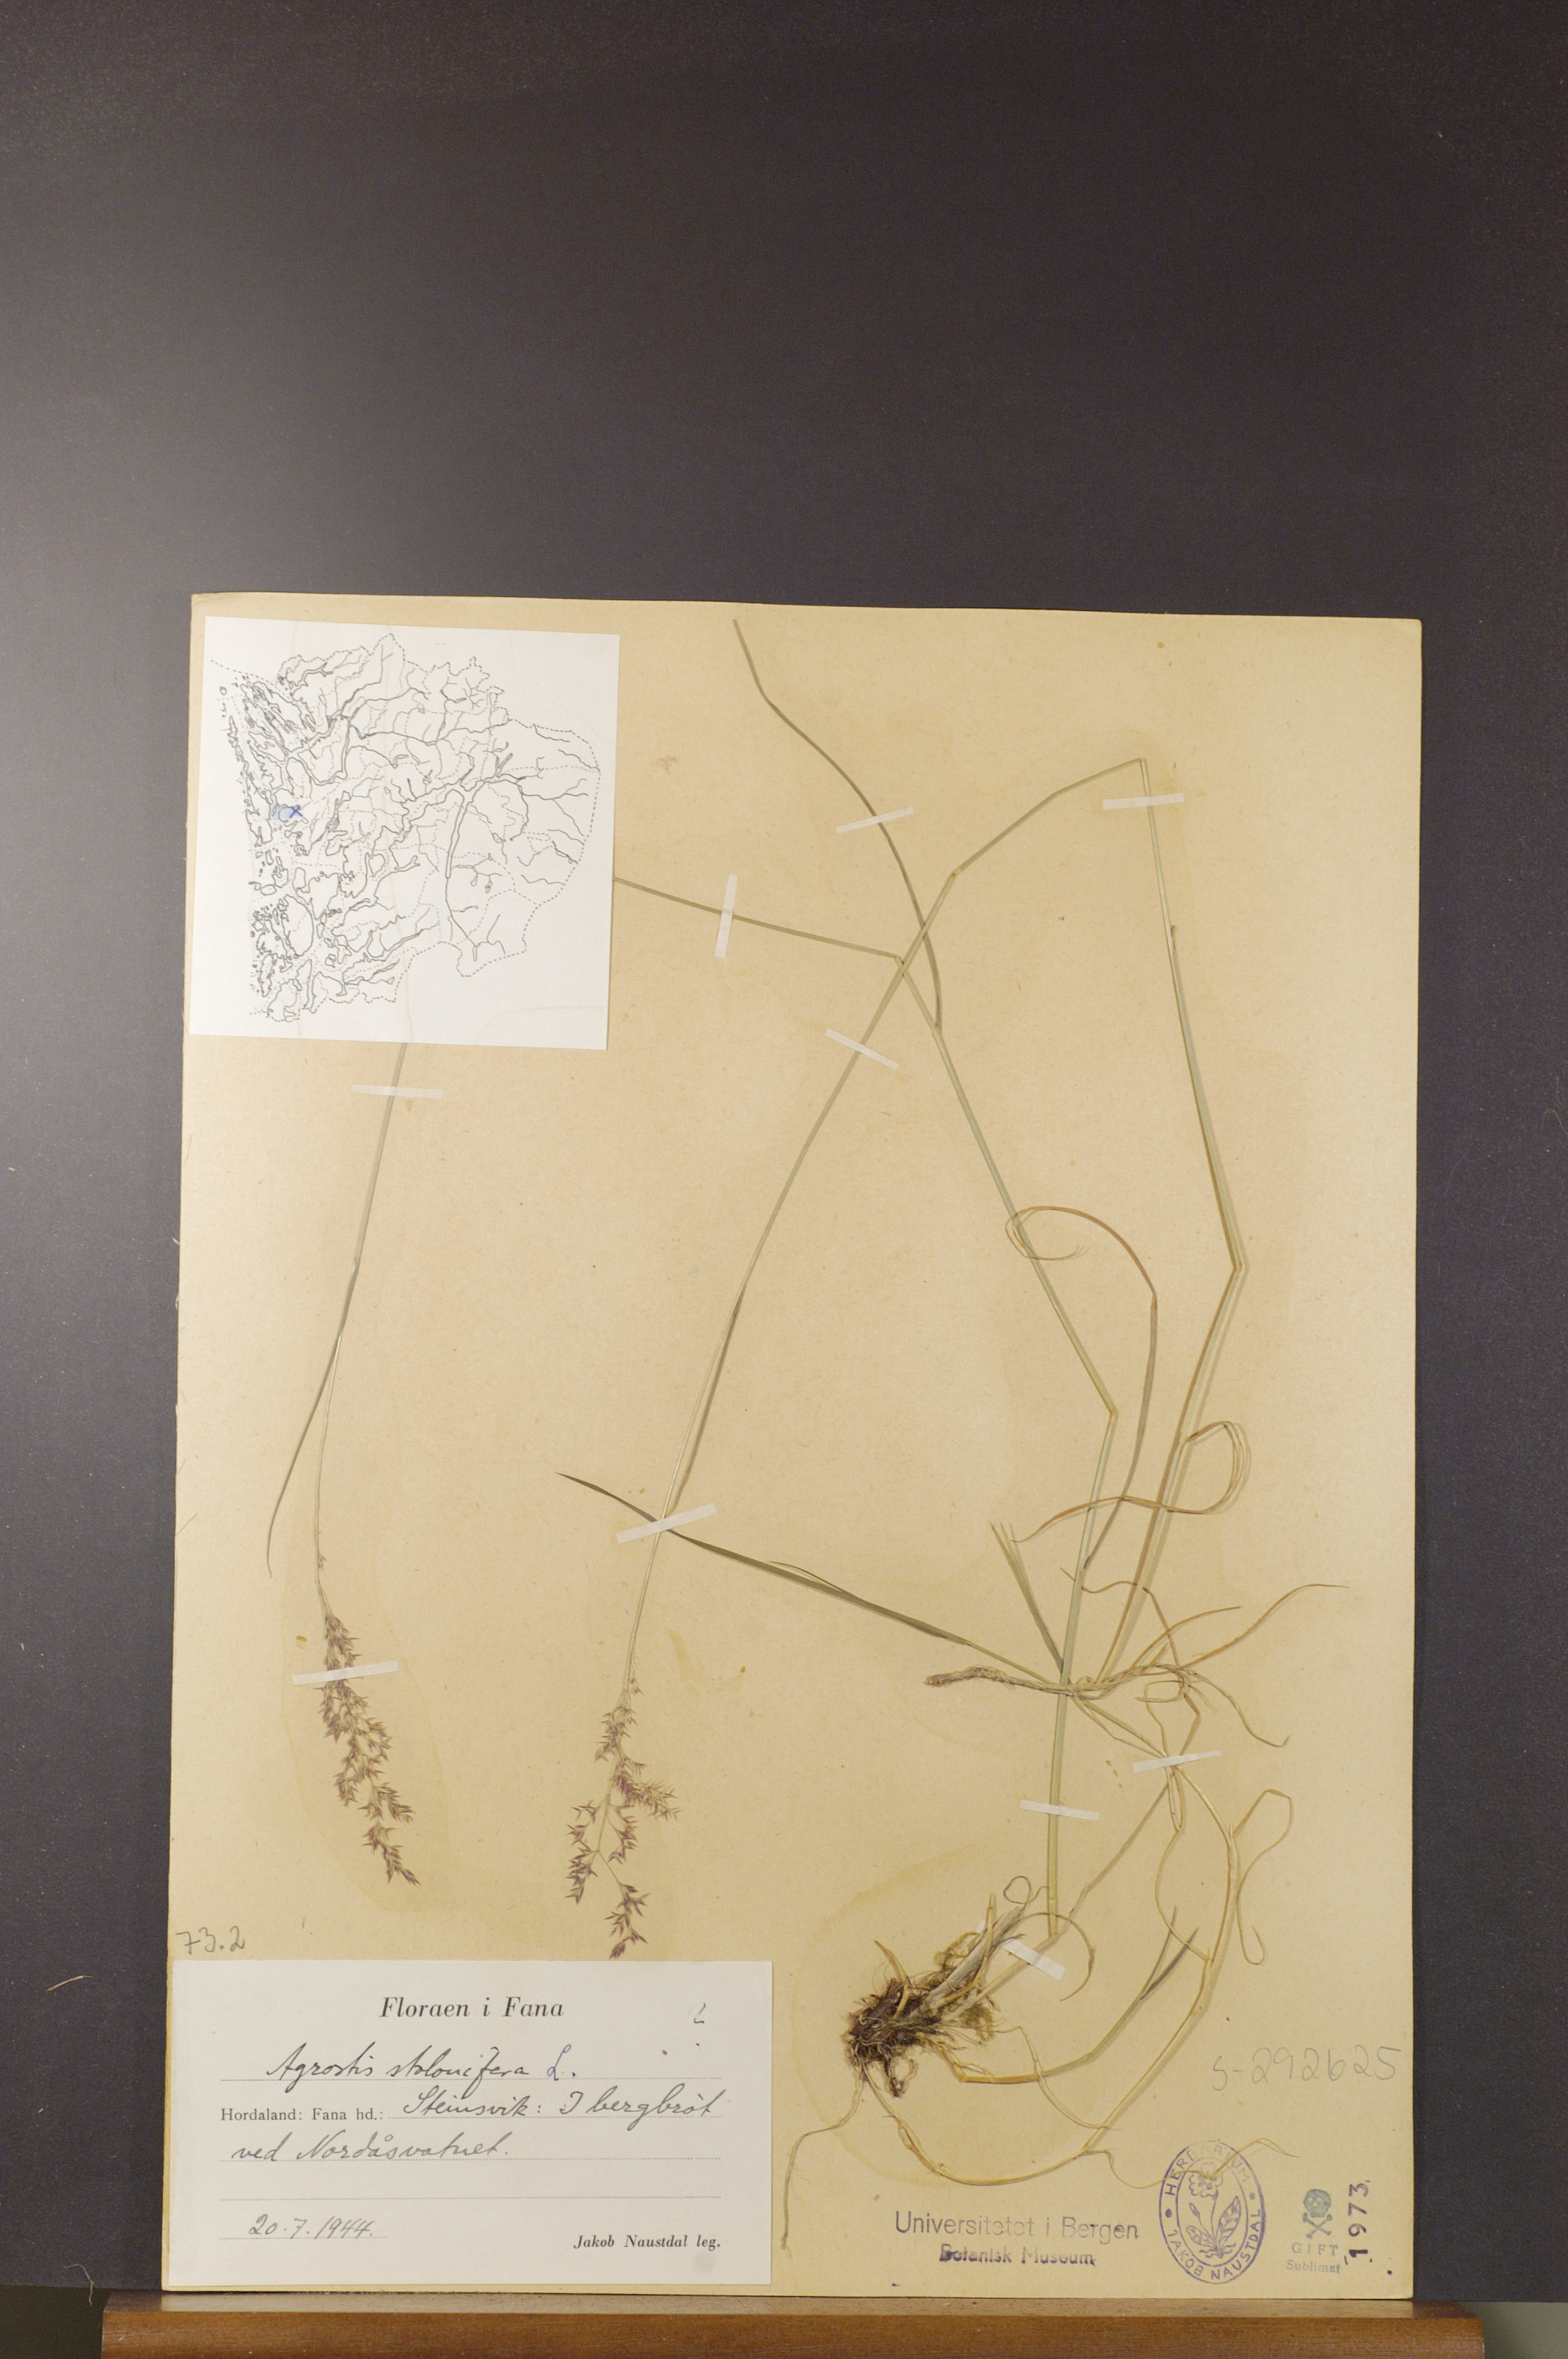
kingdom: Plantae
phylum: Tracheophyta
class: Liliopsida
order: Poales
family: Poaceae
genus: Agrostis
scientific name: Agrostis stolonifera
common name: Creeping bentgrass
